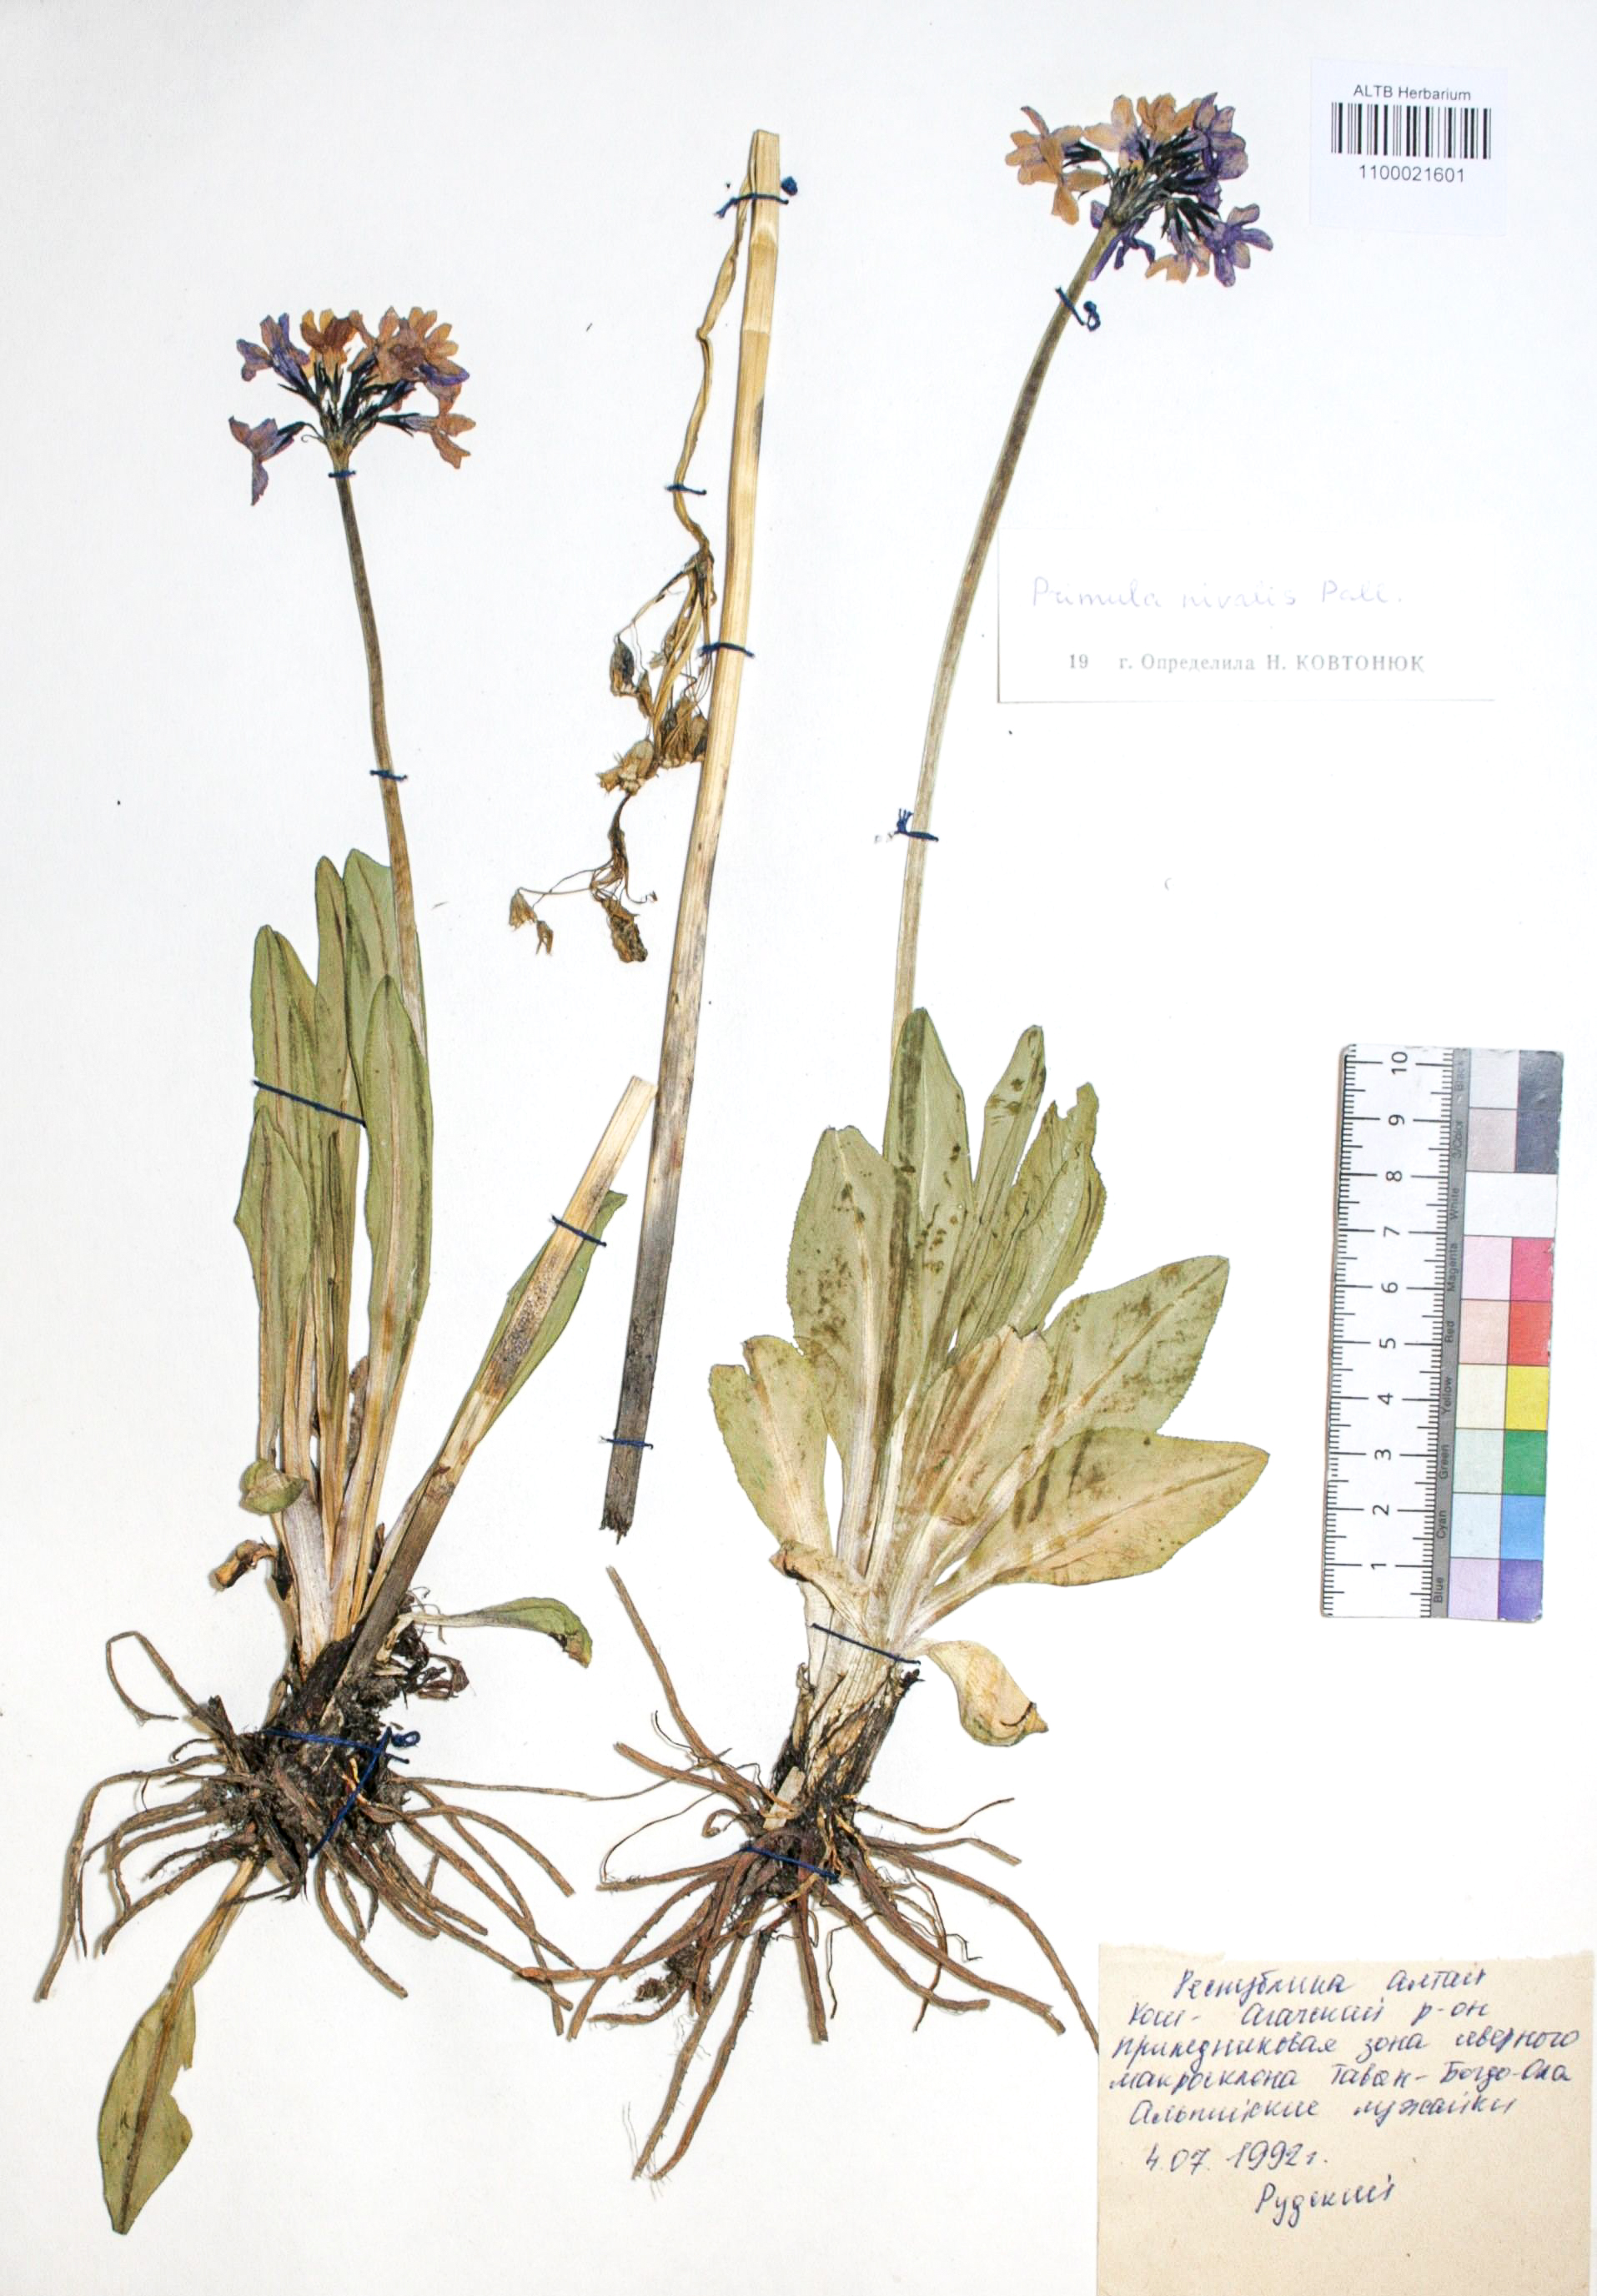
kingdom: Plantae
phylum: Tracheophyta
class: Magnoliopsida
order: Ericales
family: Primulaceae
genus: Primula
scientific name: Primula nivalis
